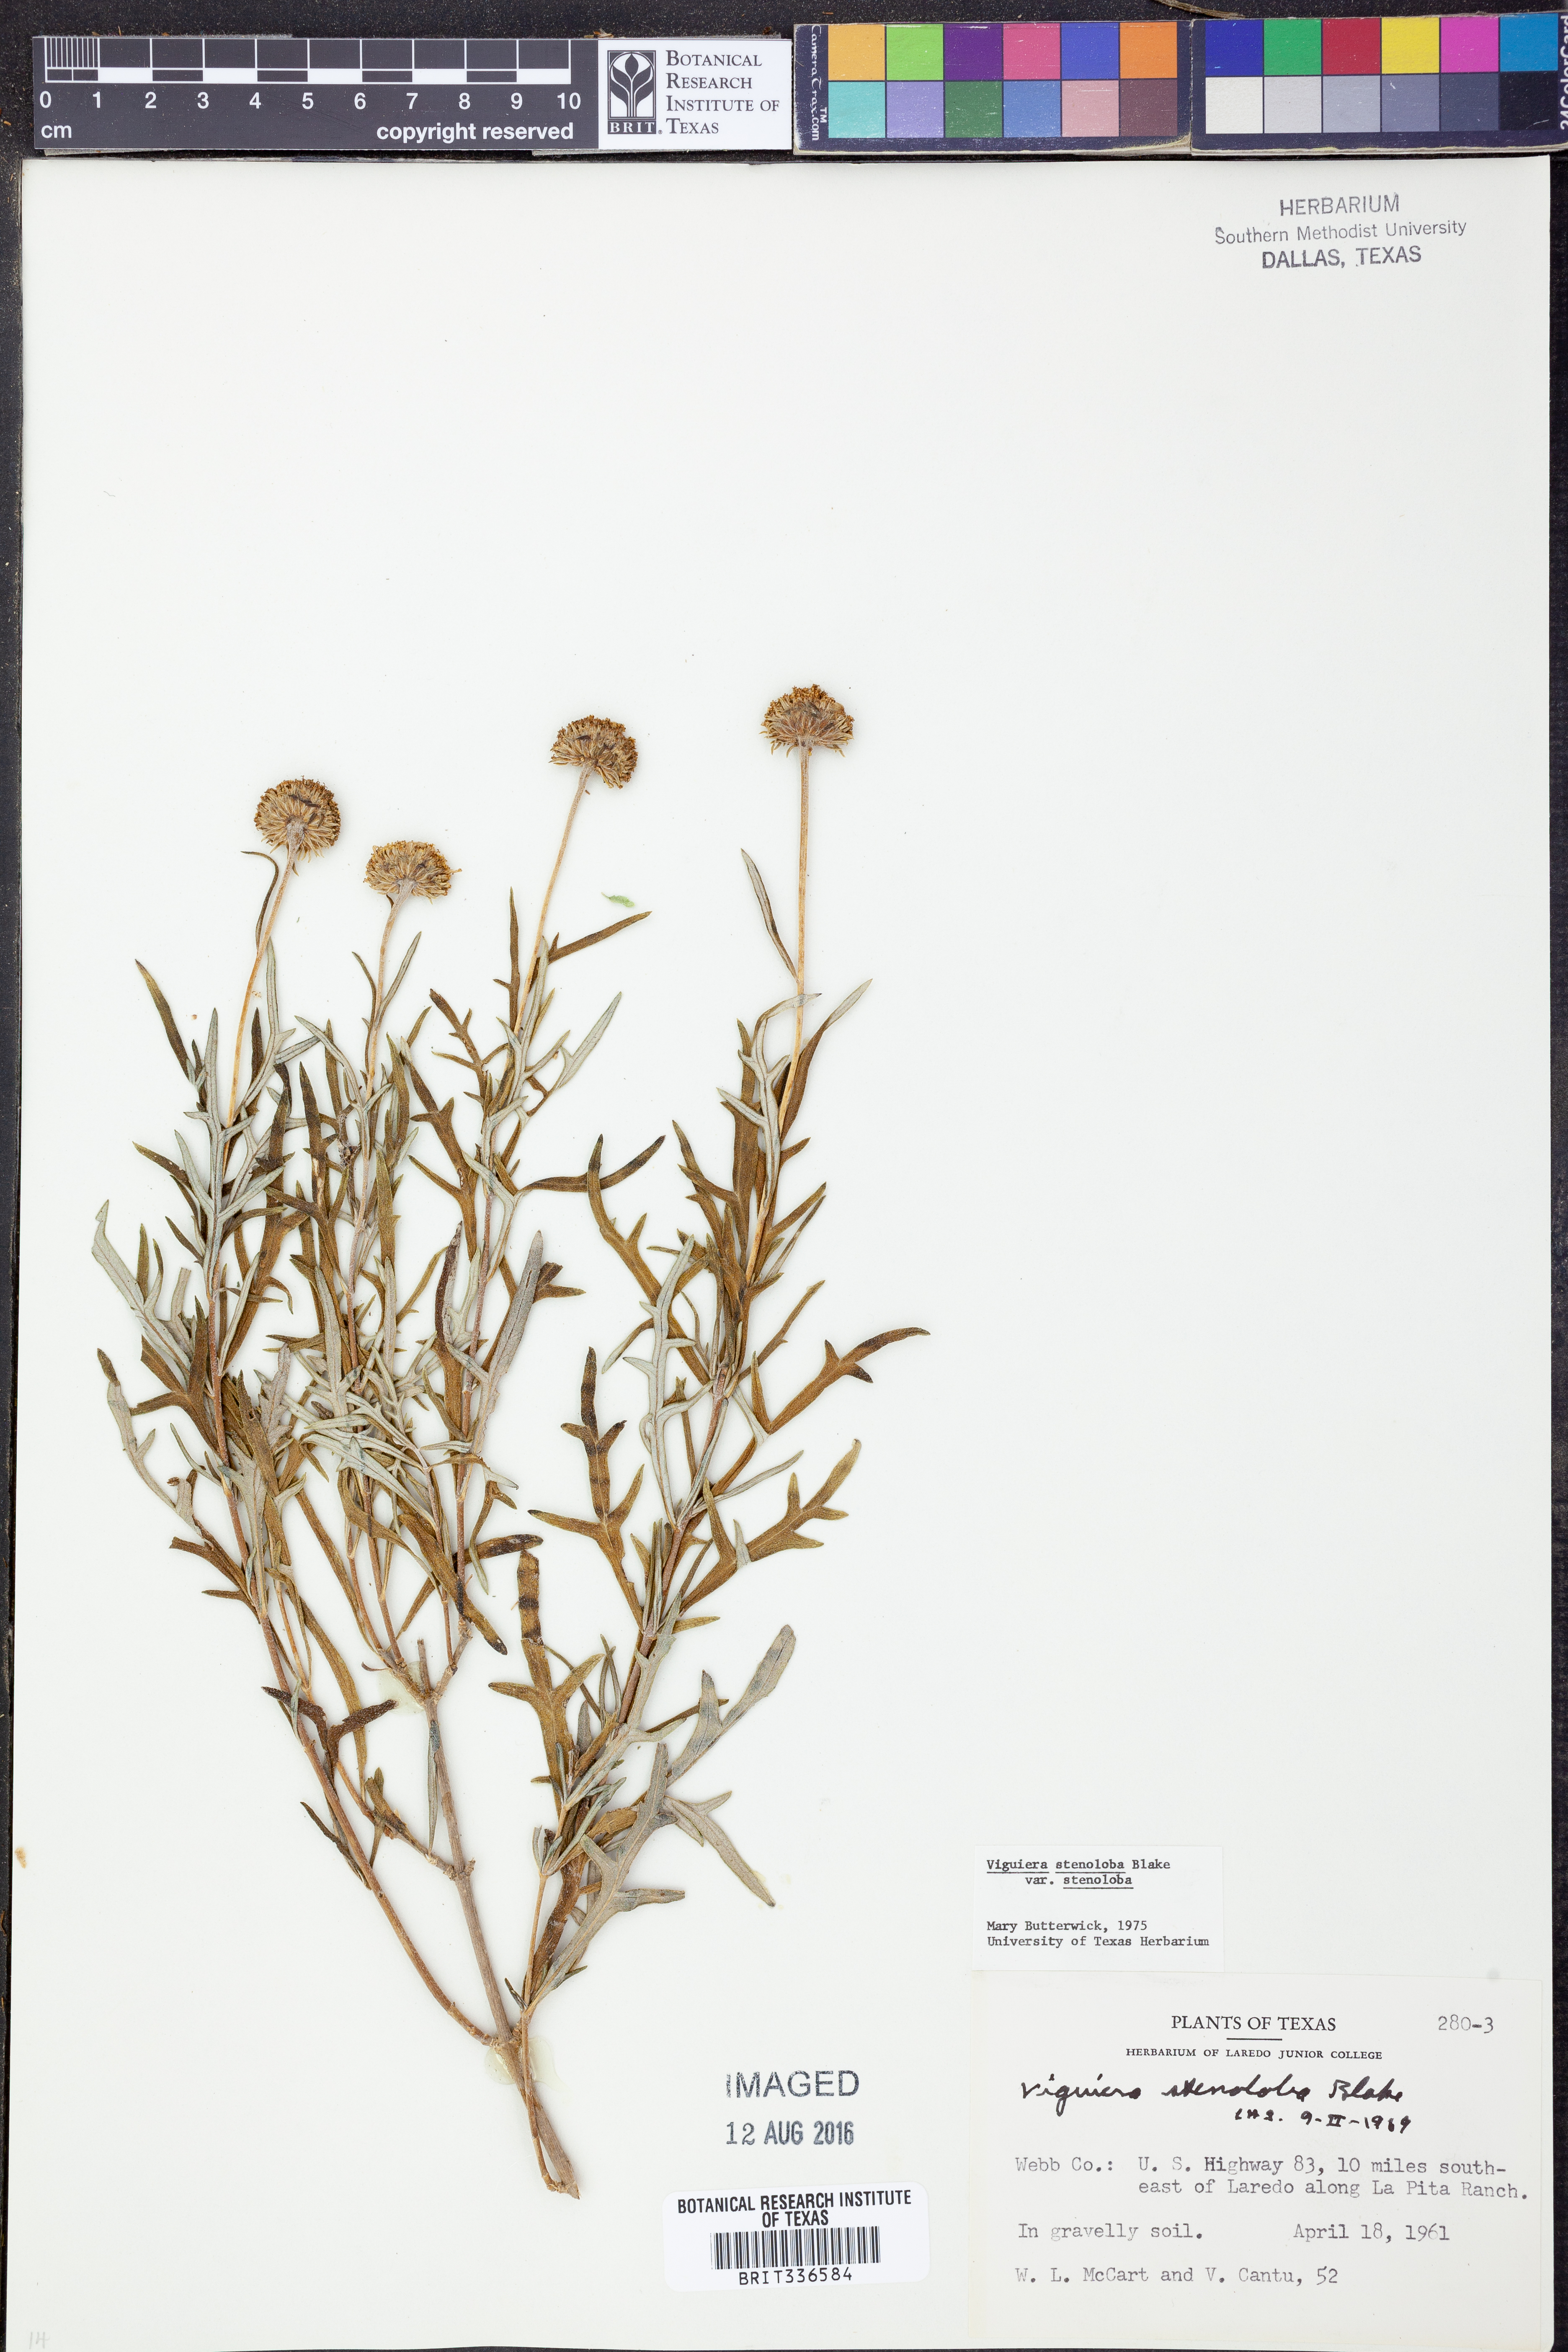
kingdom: Plantae
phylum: Tracheophyta
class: Magnoliopsida
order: Asterales
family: Asteraceae
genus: Sidneya
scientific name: Sidneya tenuifolia
